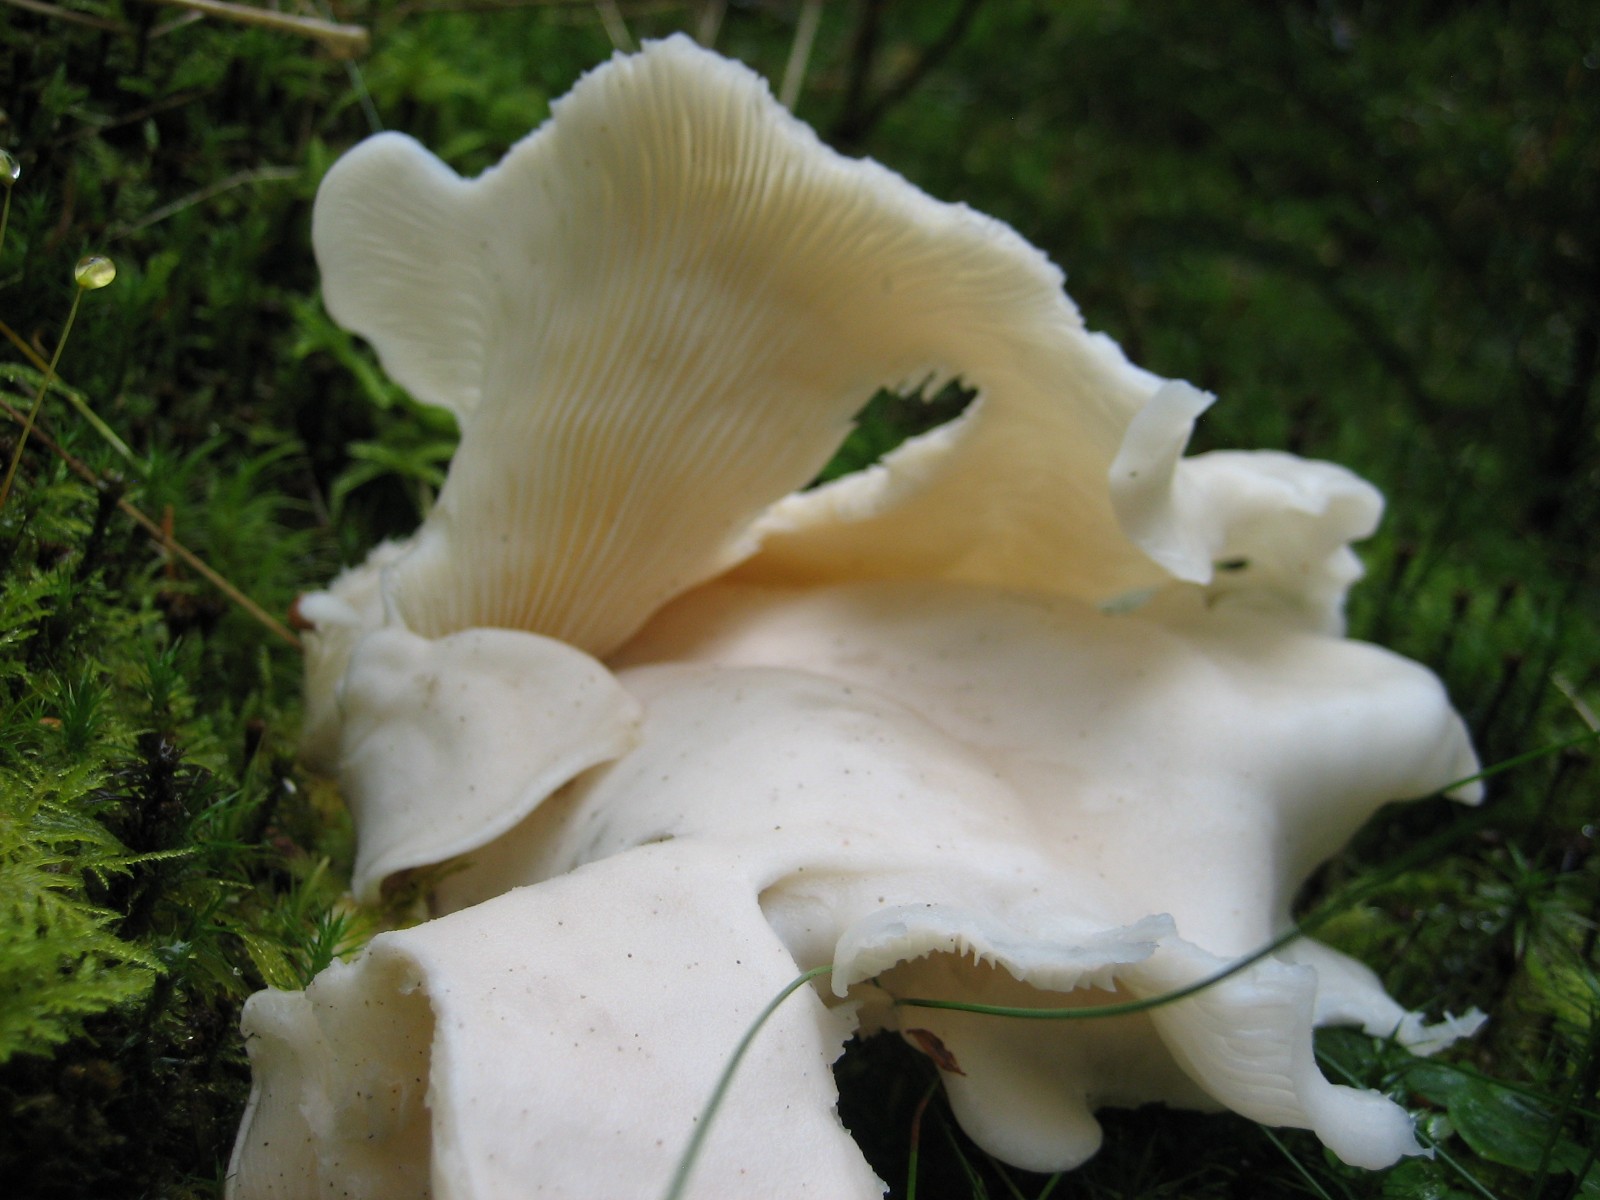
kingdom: Fungi
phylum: Basidiomycota
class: Agaricomycetes
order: Agaricales
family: Marasmiaceae
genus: Pleurocybella
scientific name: Pleurocybella porrigens
